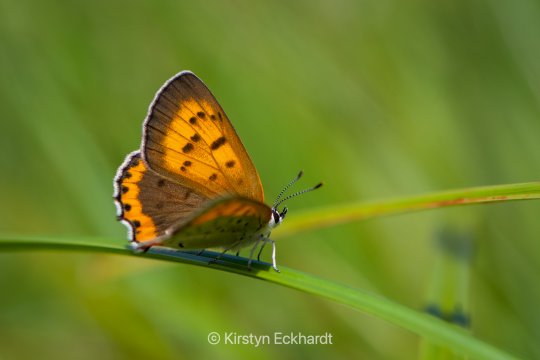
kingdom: Animalia
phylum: Arthropoda
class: Insecta
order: Lepidoptera
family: Sesiidae
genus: Sesia
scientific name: Sesia Lycaena hyllus
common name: Bronze Copper
